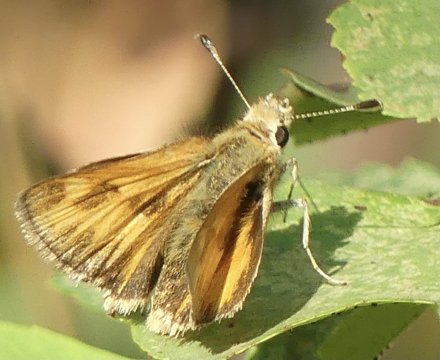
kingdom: Animalia
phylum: Arthropoda
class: Insecta
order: Lepidoptera
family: Hesperiidae
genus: Ochlodes
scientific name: Ochlodes sylvanoides
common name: Woodland Skipper
